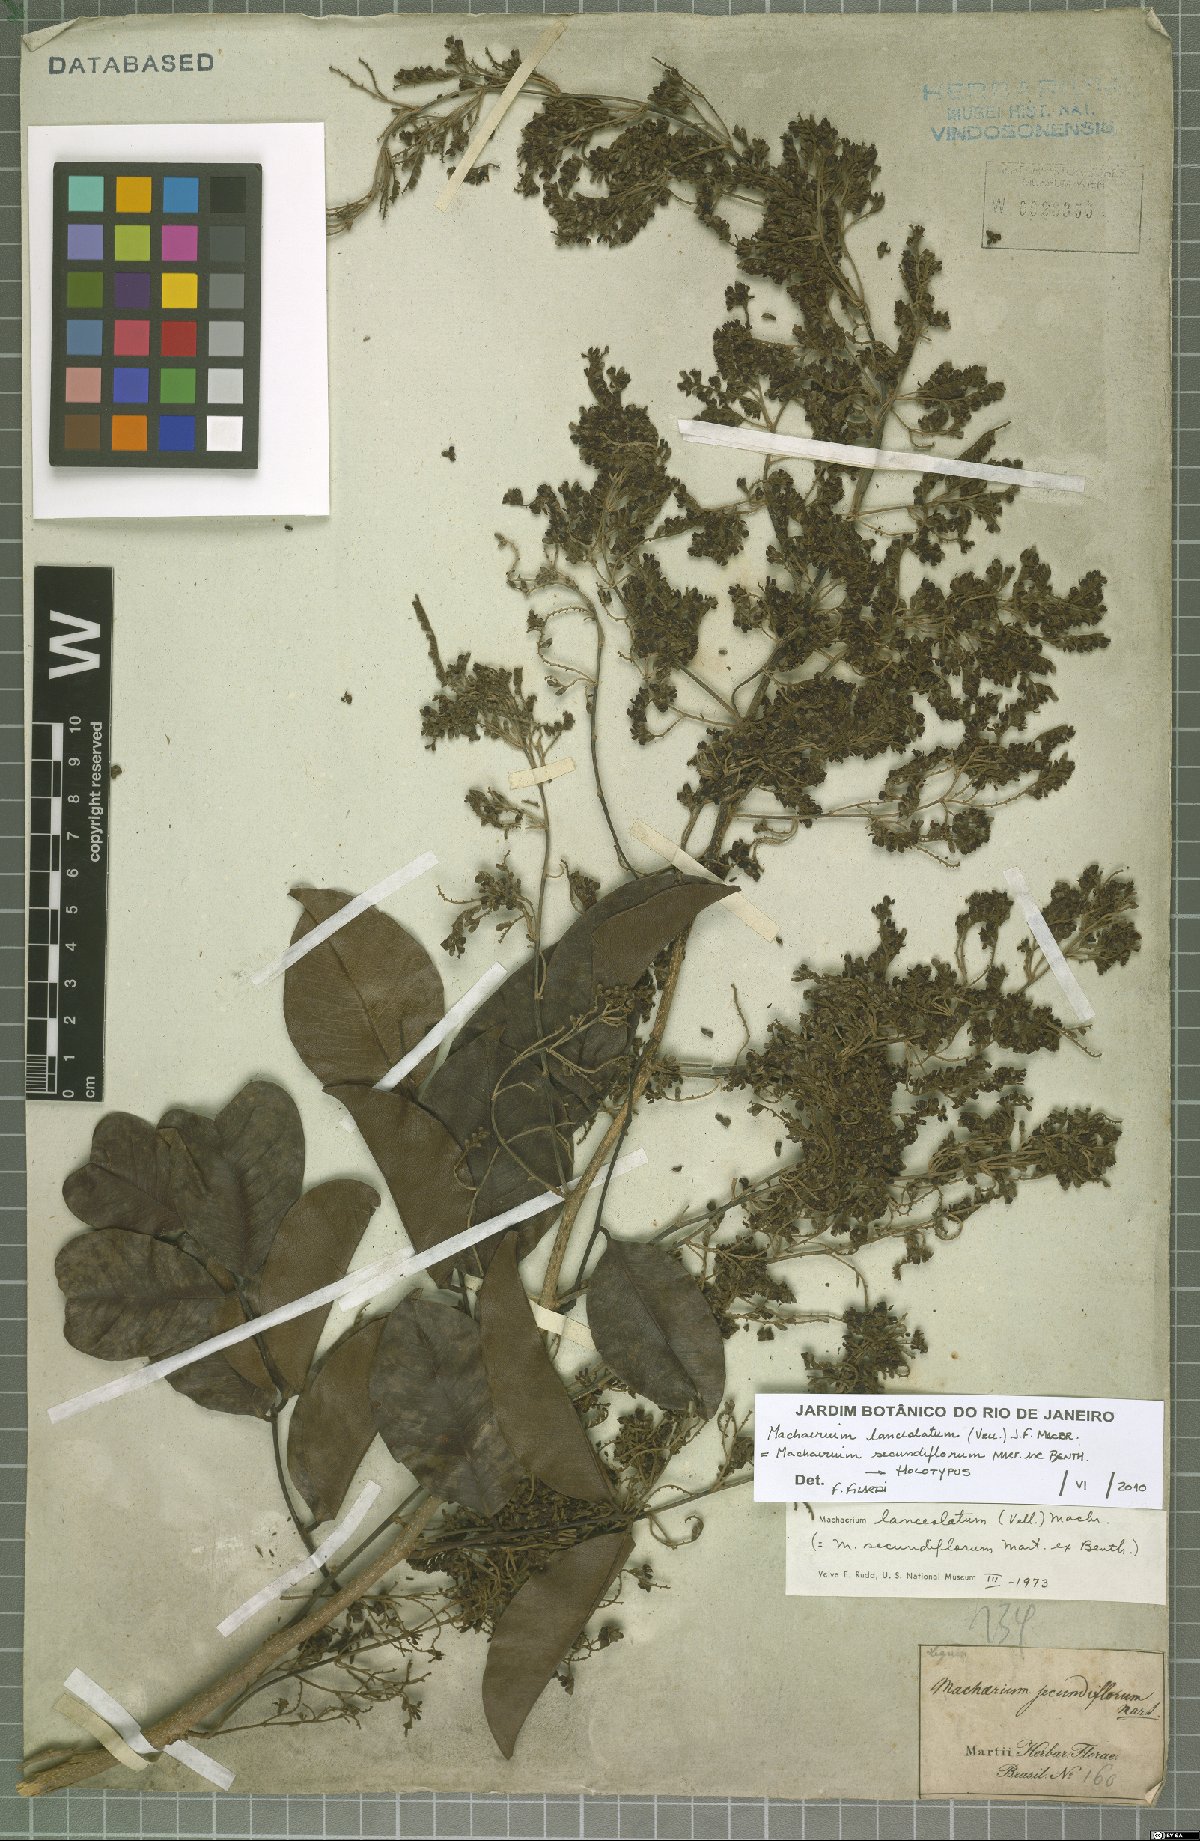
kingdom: Plantae
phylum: Tracheophyta
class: Magnoliopsida
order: Fabales
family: Fabaceae
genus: Machaerium
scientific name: Machaerium lanceolatum
